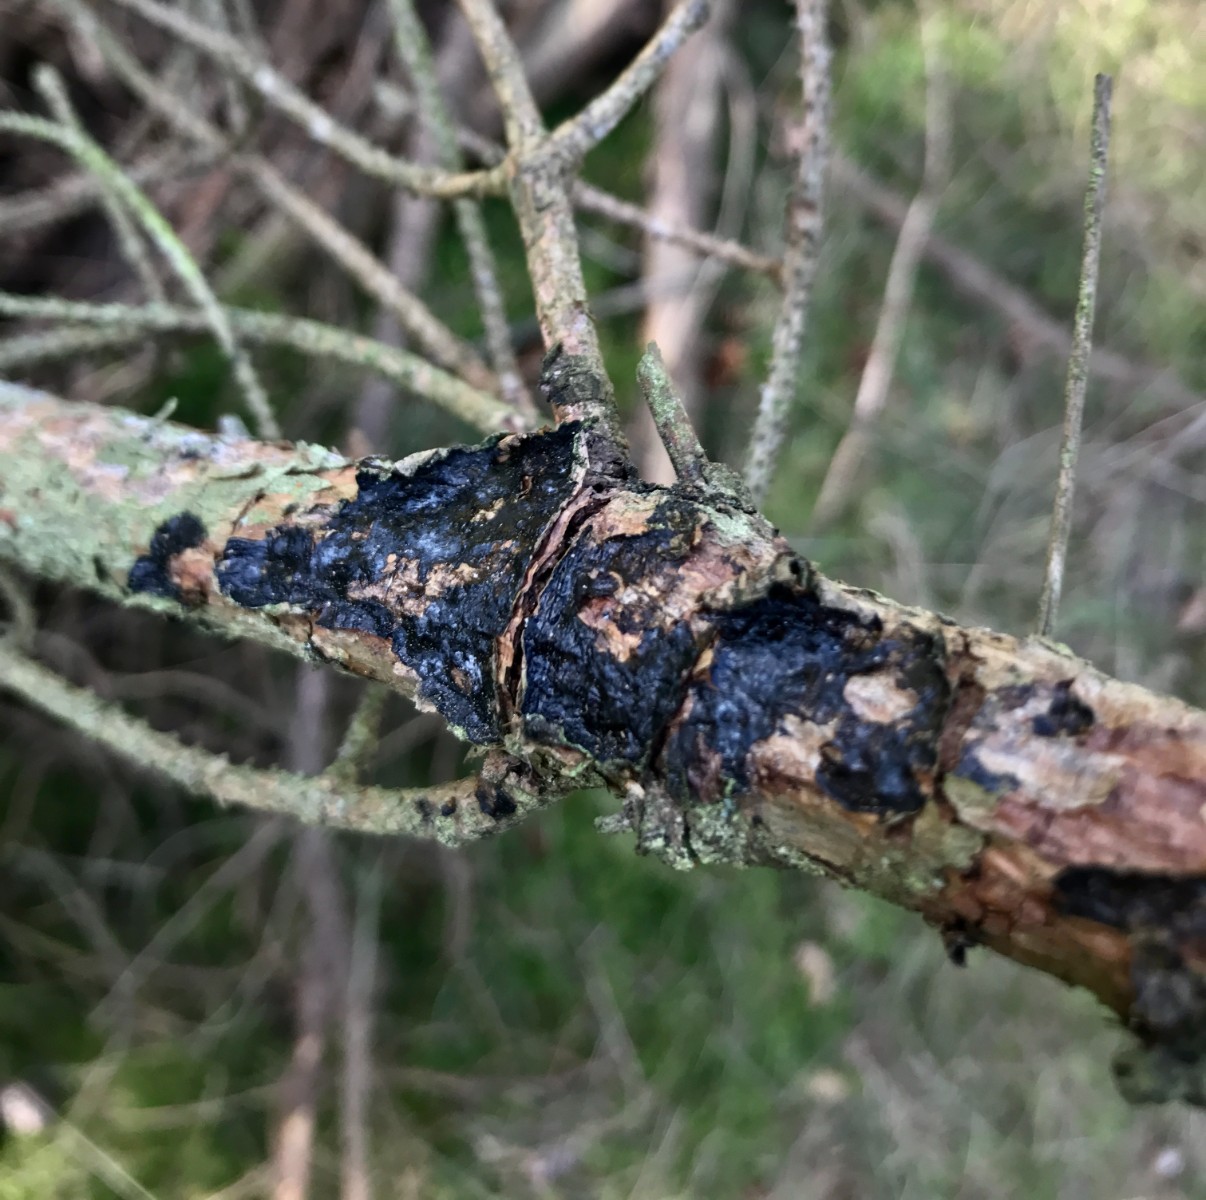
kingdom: Fungi
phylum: Basidiomycota
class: Agaricomycetes
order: Auriculariales
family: Auriculariaceae
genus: Exidia
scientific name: Exidia pithya
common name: gran-bævretop
